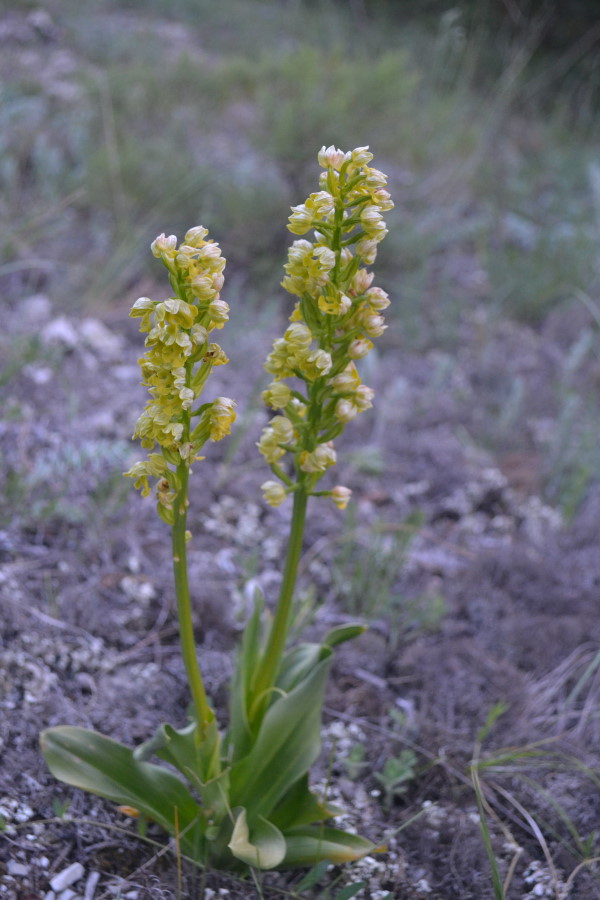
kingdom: Plantae
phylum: Tracheophyta
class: Liliopsida
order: Asparagales
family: Orchidaceae
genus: Orchis
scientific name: Orchis punctulata
